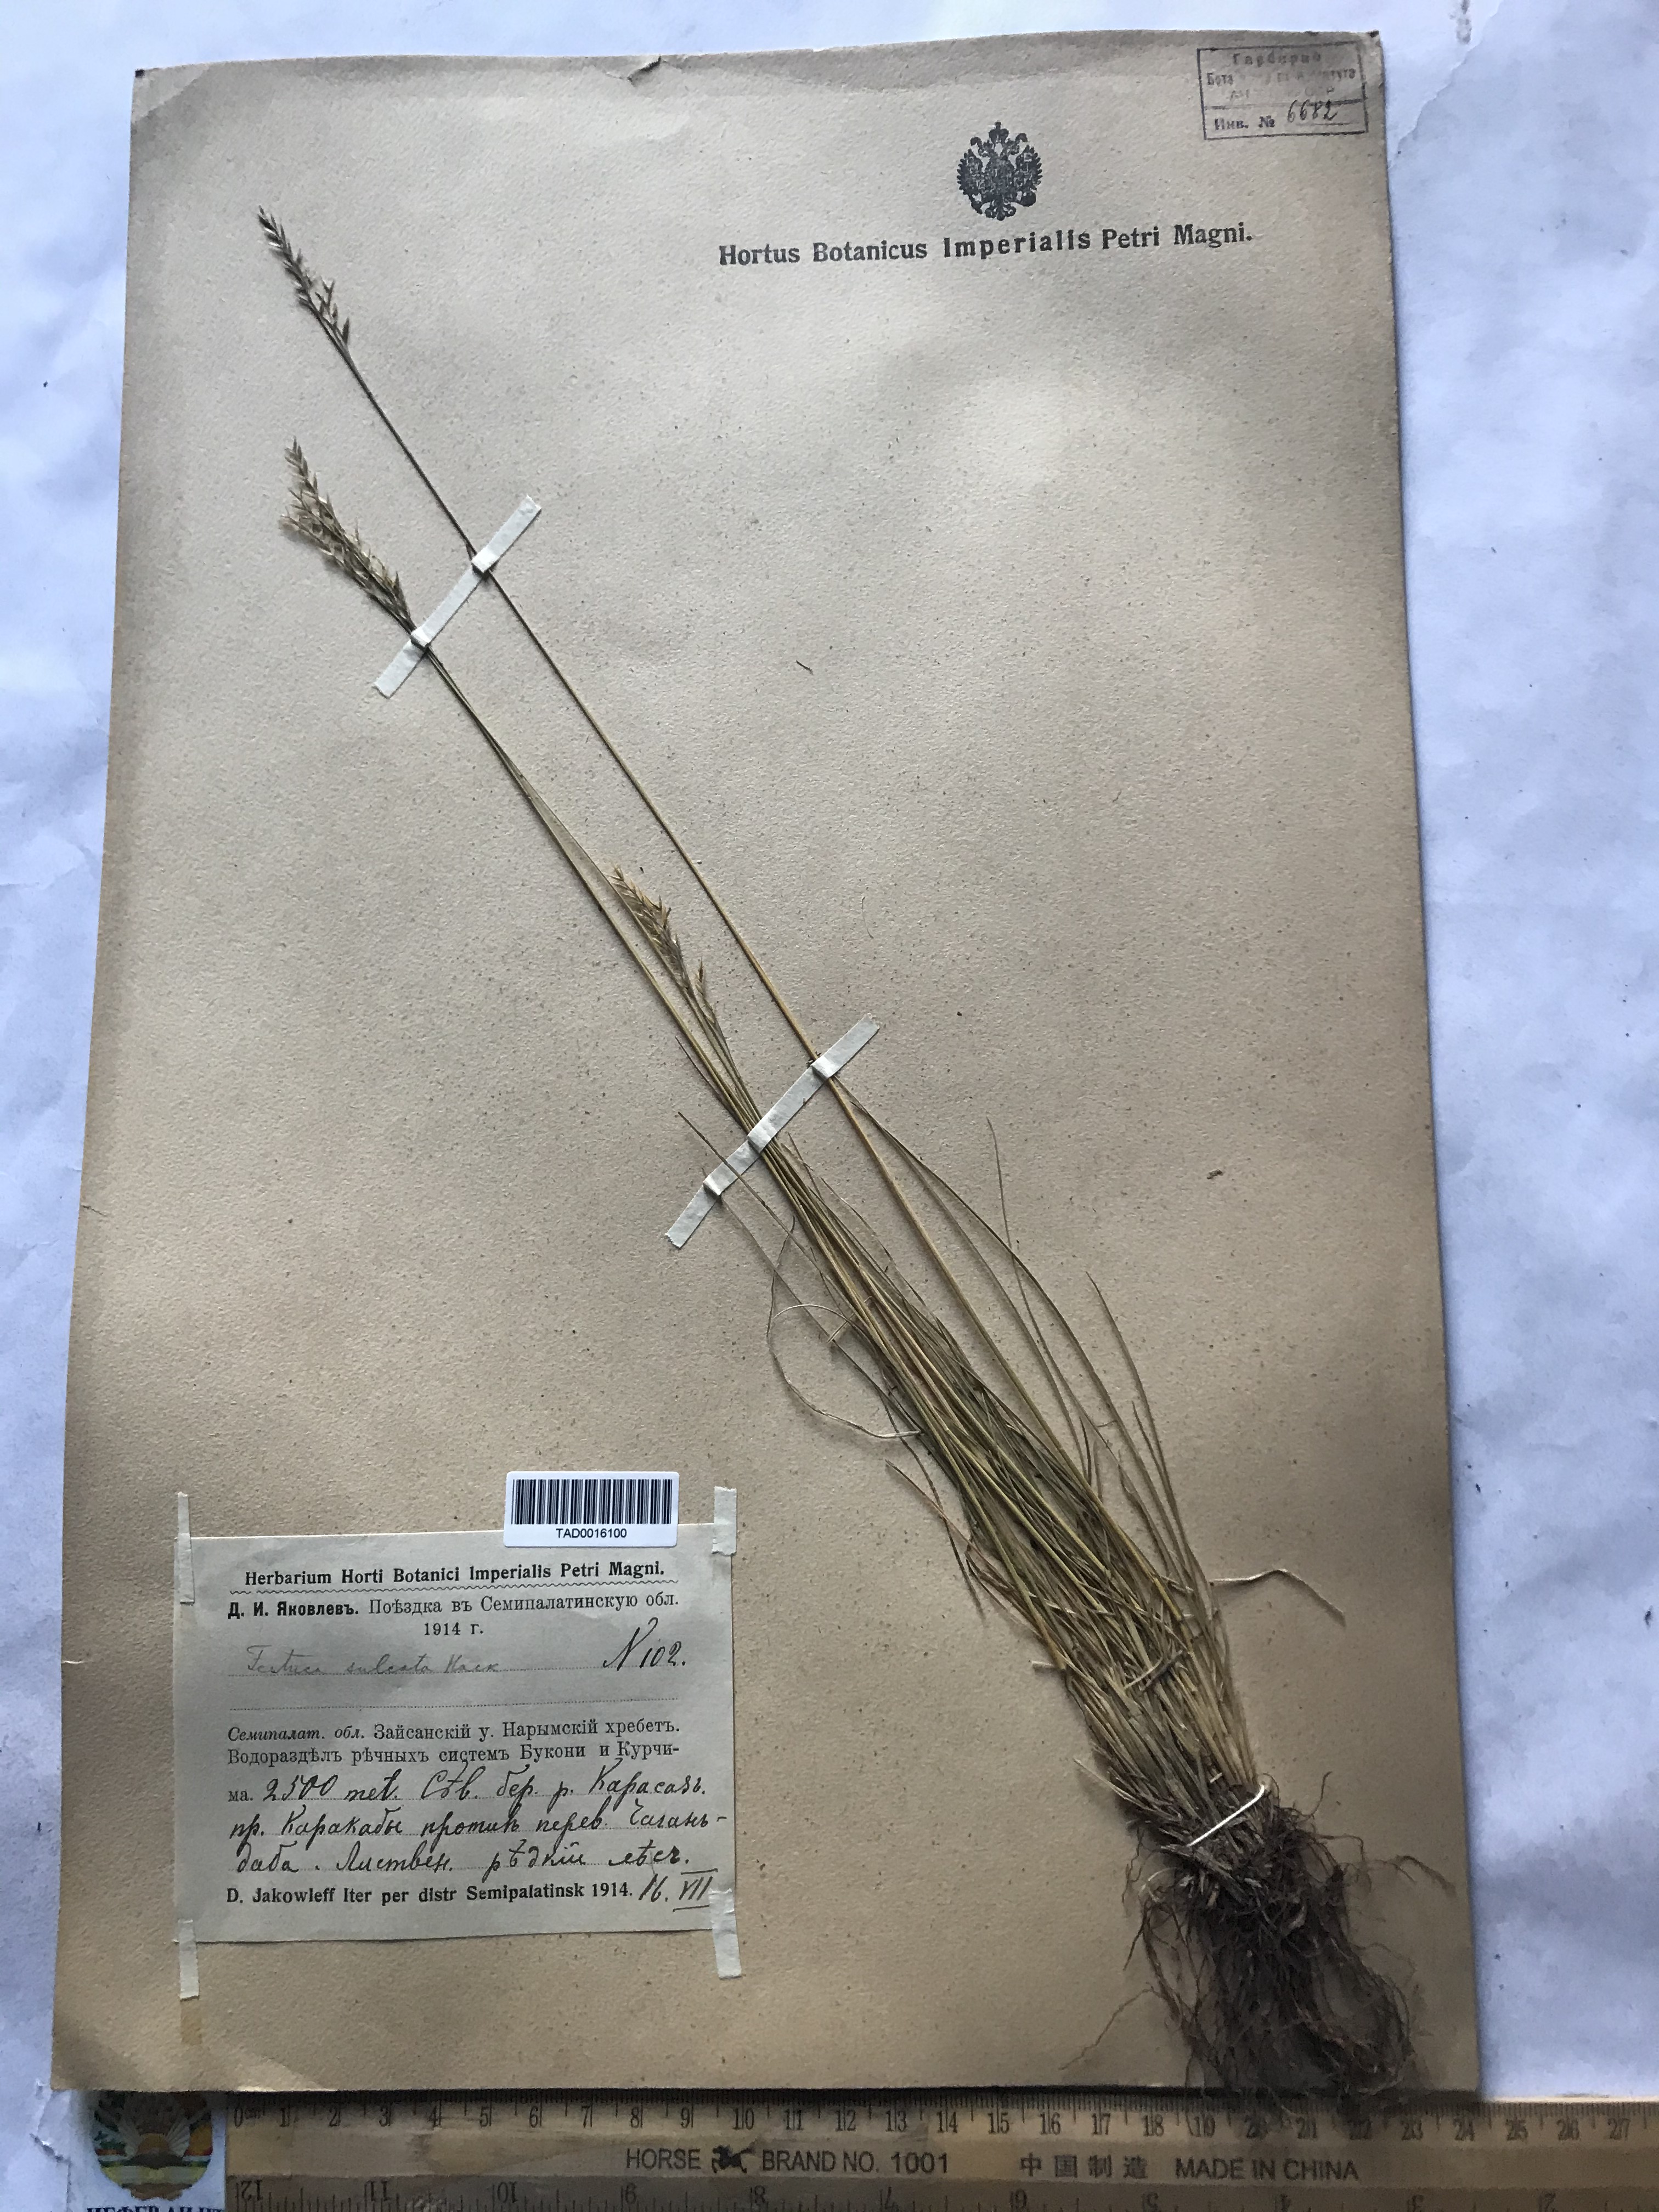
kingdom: Plantae
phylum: Tracheophyta
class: Liliopsida
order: Poales
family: Poaceae
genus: Festuca
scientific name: Festuca sulcata
